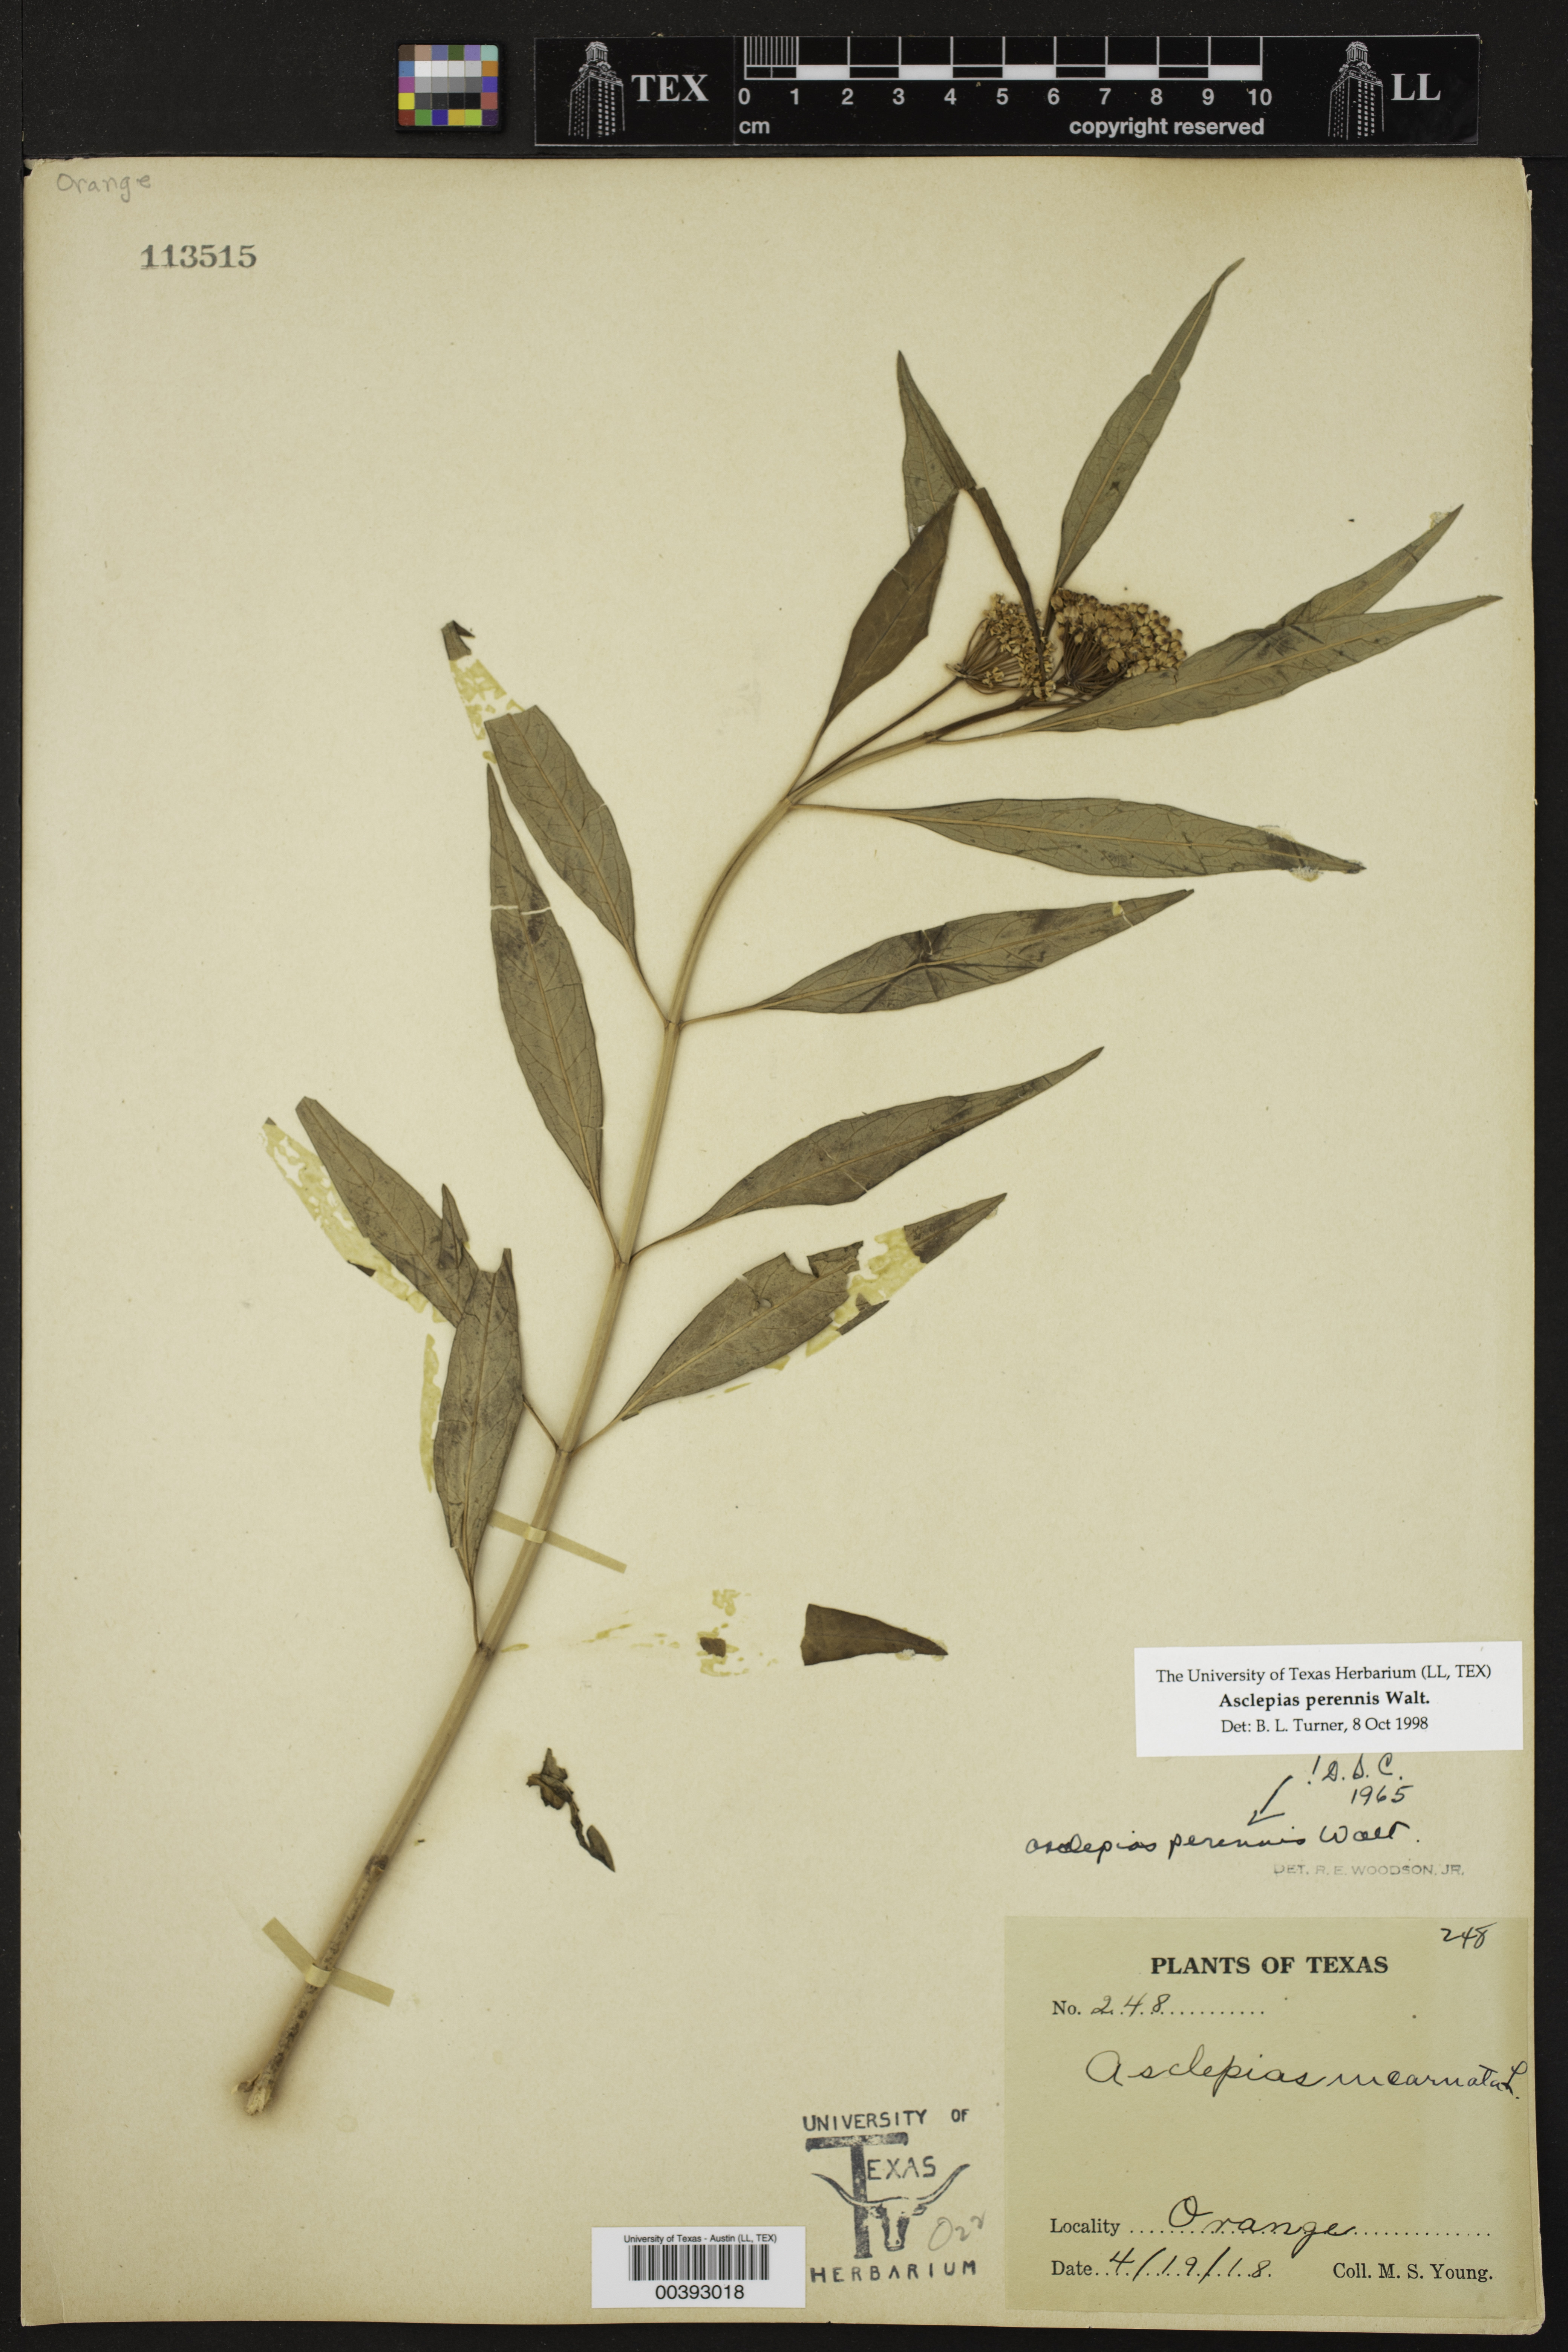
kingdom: Plantae
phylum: Tracheophyta
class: Magnoliopsida
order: Gentianales
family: Apocynaceae
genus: Asclepias
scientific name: Asclepias perennis
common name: Smooth-seed milkweed
